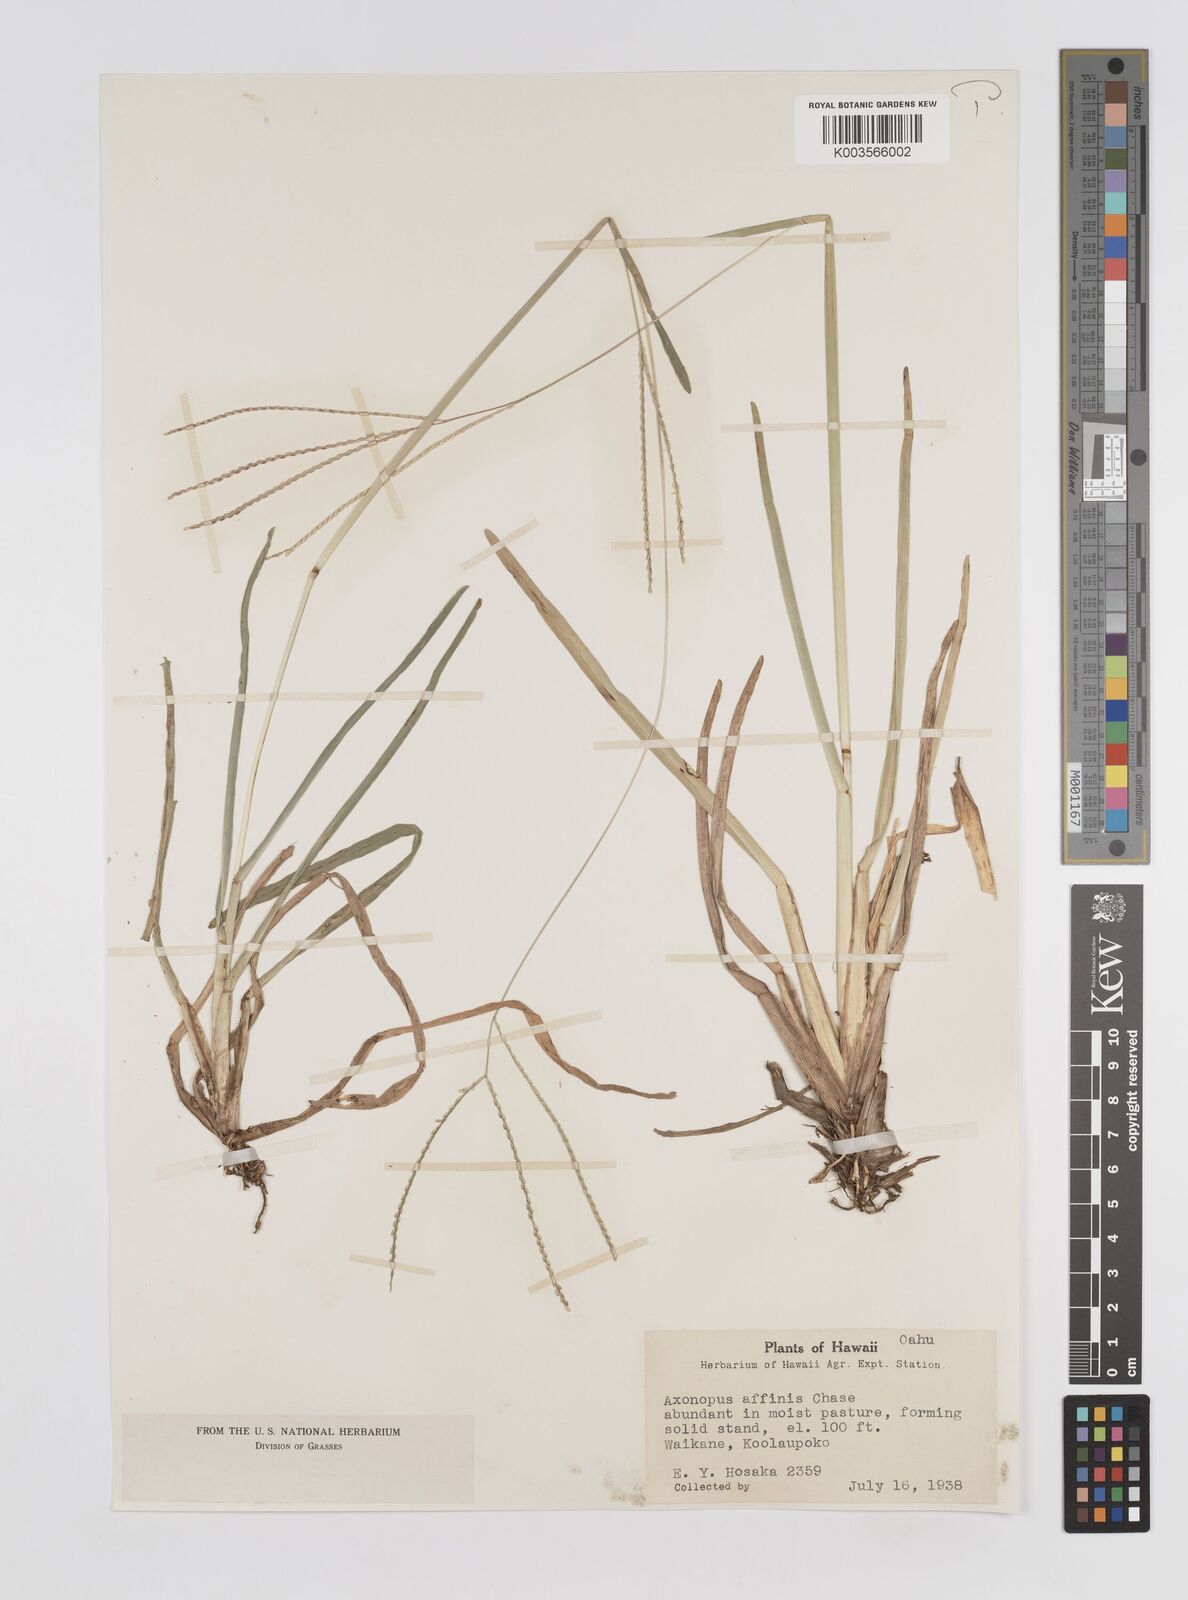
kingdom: Plantae
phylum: Tracheophyta
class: Liliopsida
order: Poales
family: Poaceae
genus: Axonopus
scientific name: Axonopus fissifolius
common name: Common carpetgrass
